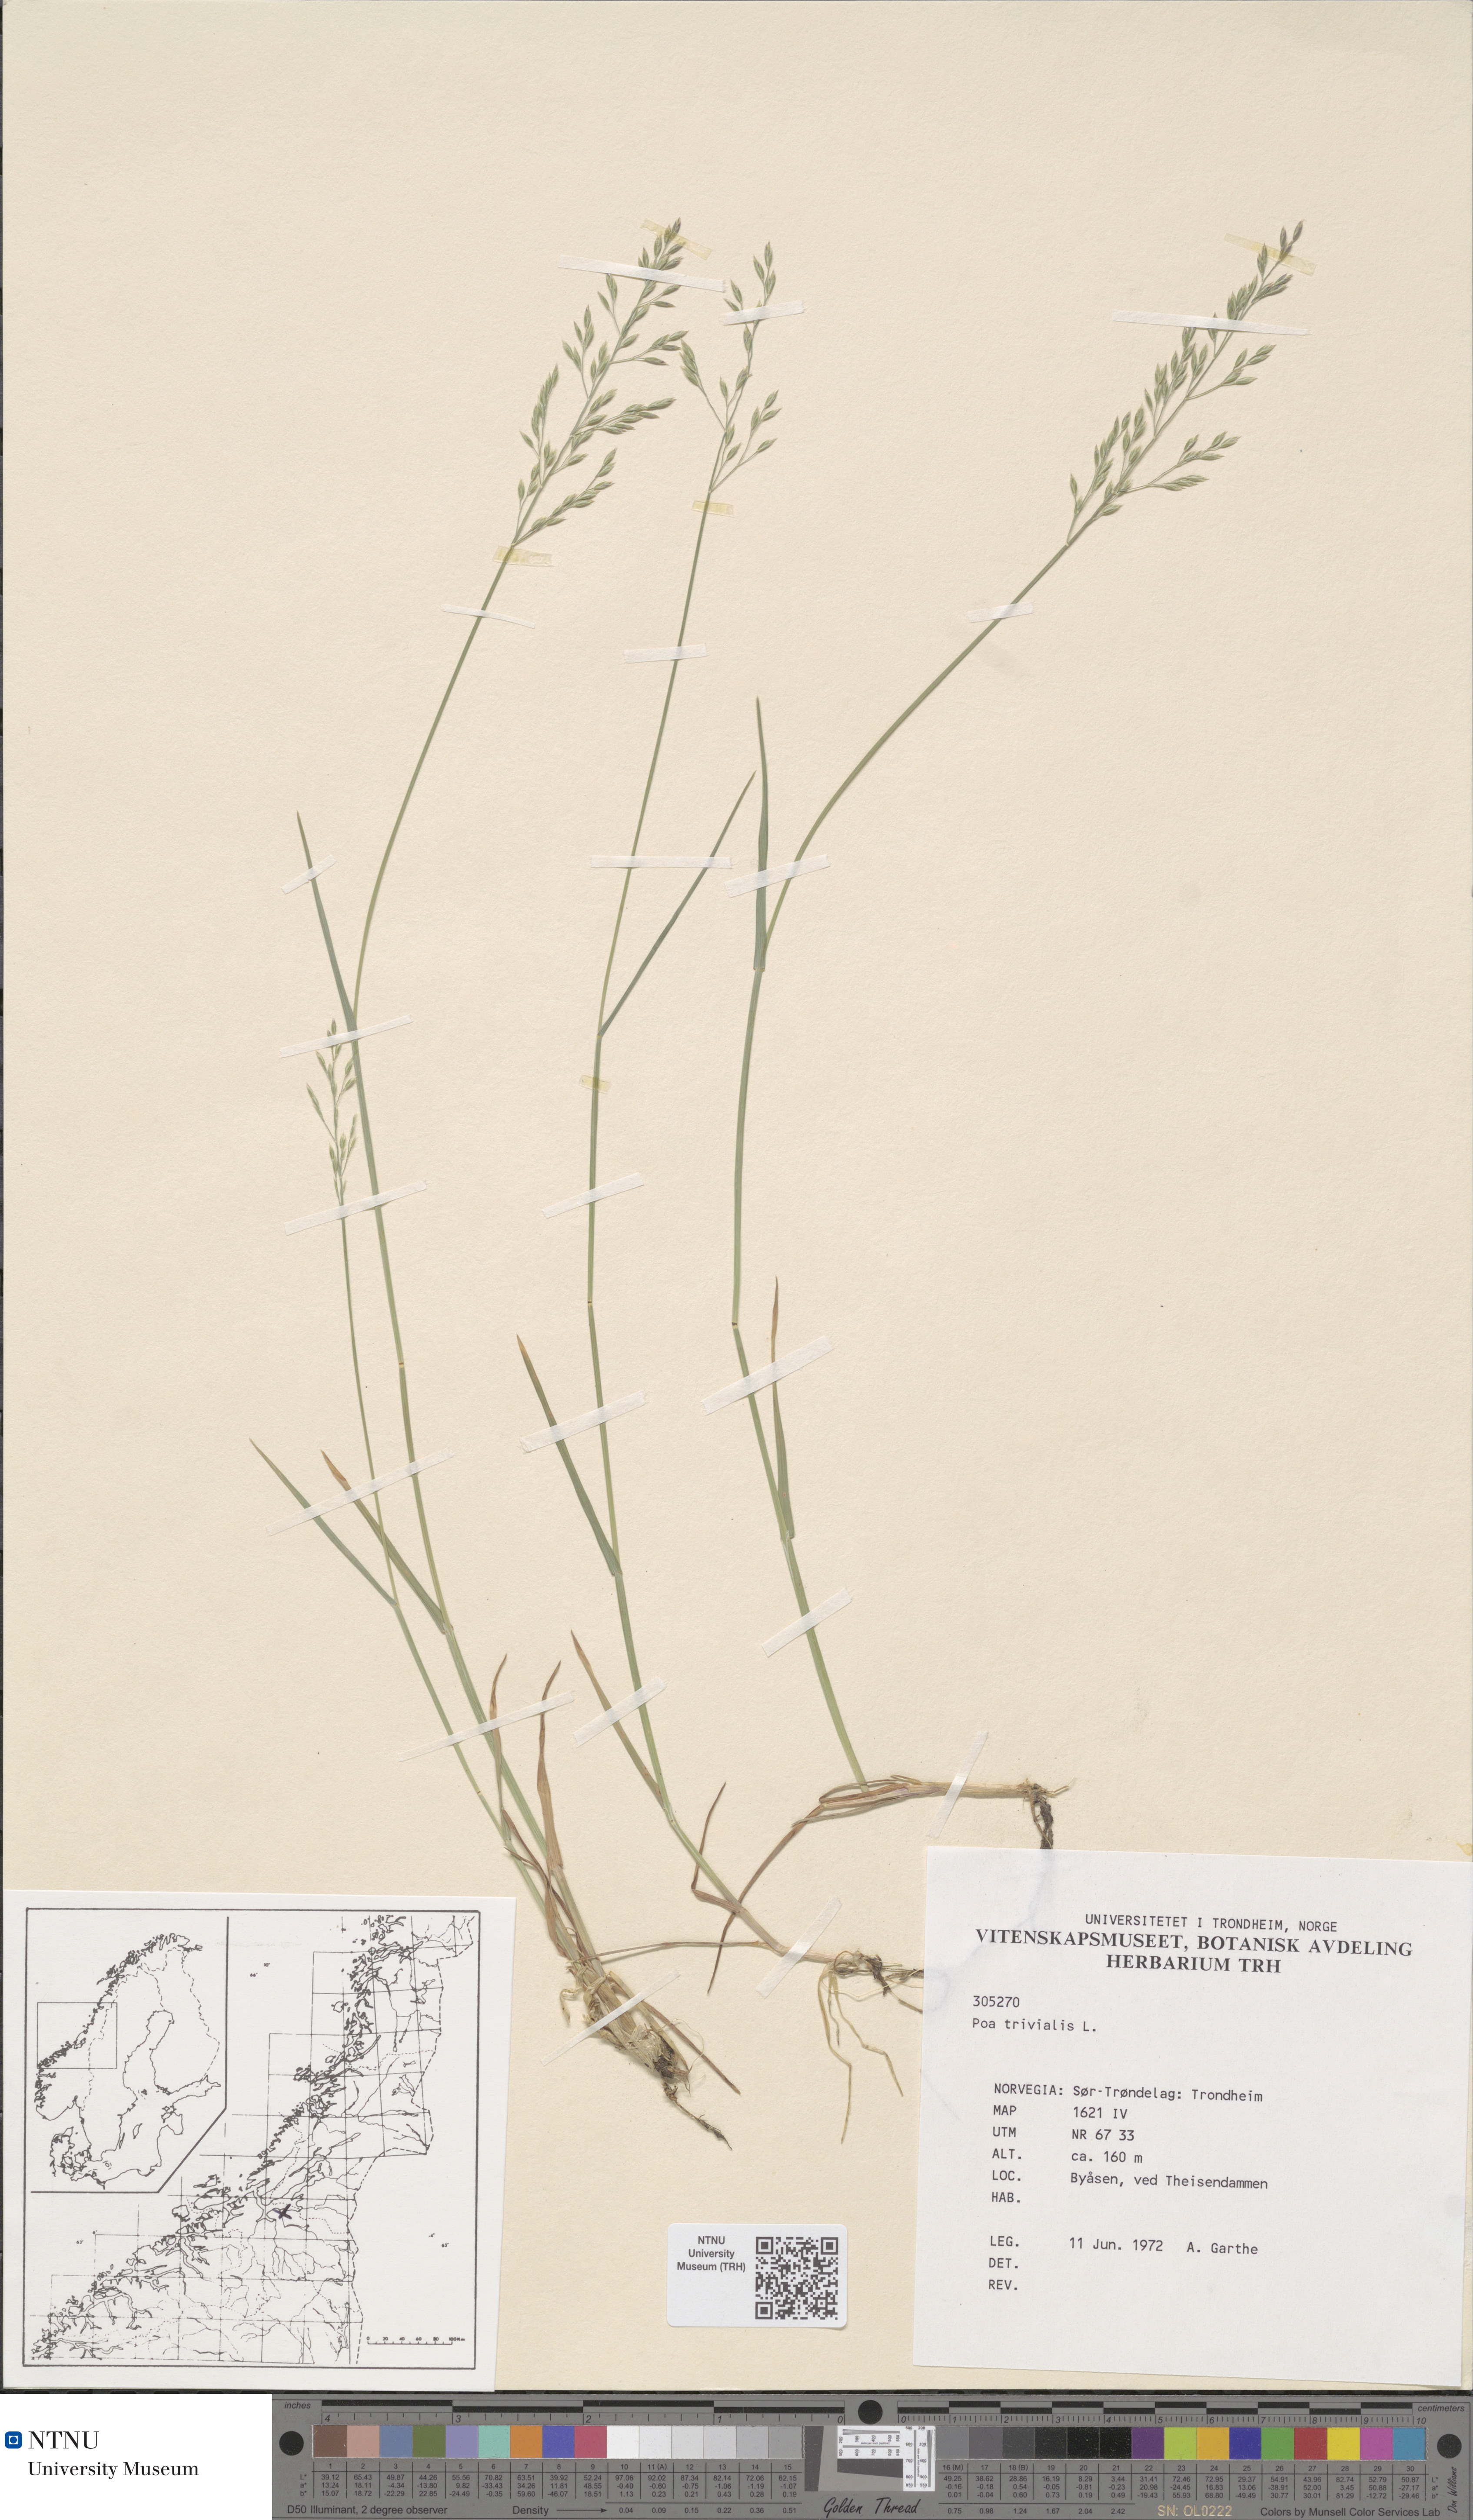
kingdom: Plantae
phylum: Tracheophyta
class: Liliopsida
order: Poales
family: Cyperaceae
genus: Carex
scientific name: Carex flacca
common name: Glaucous sedge
